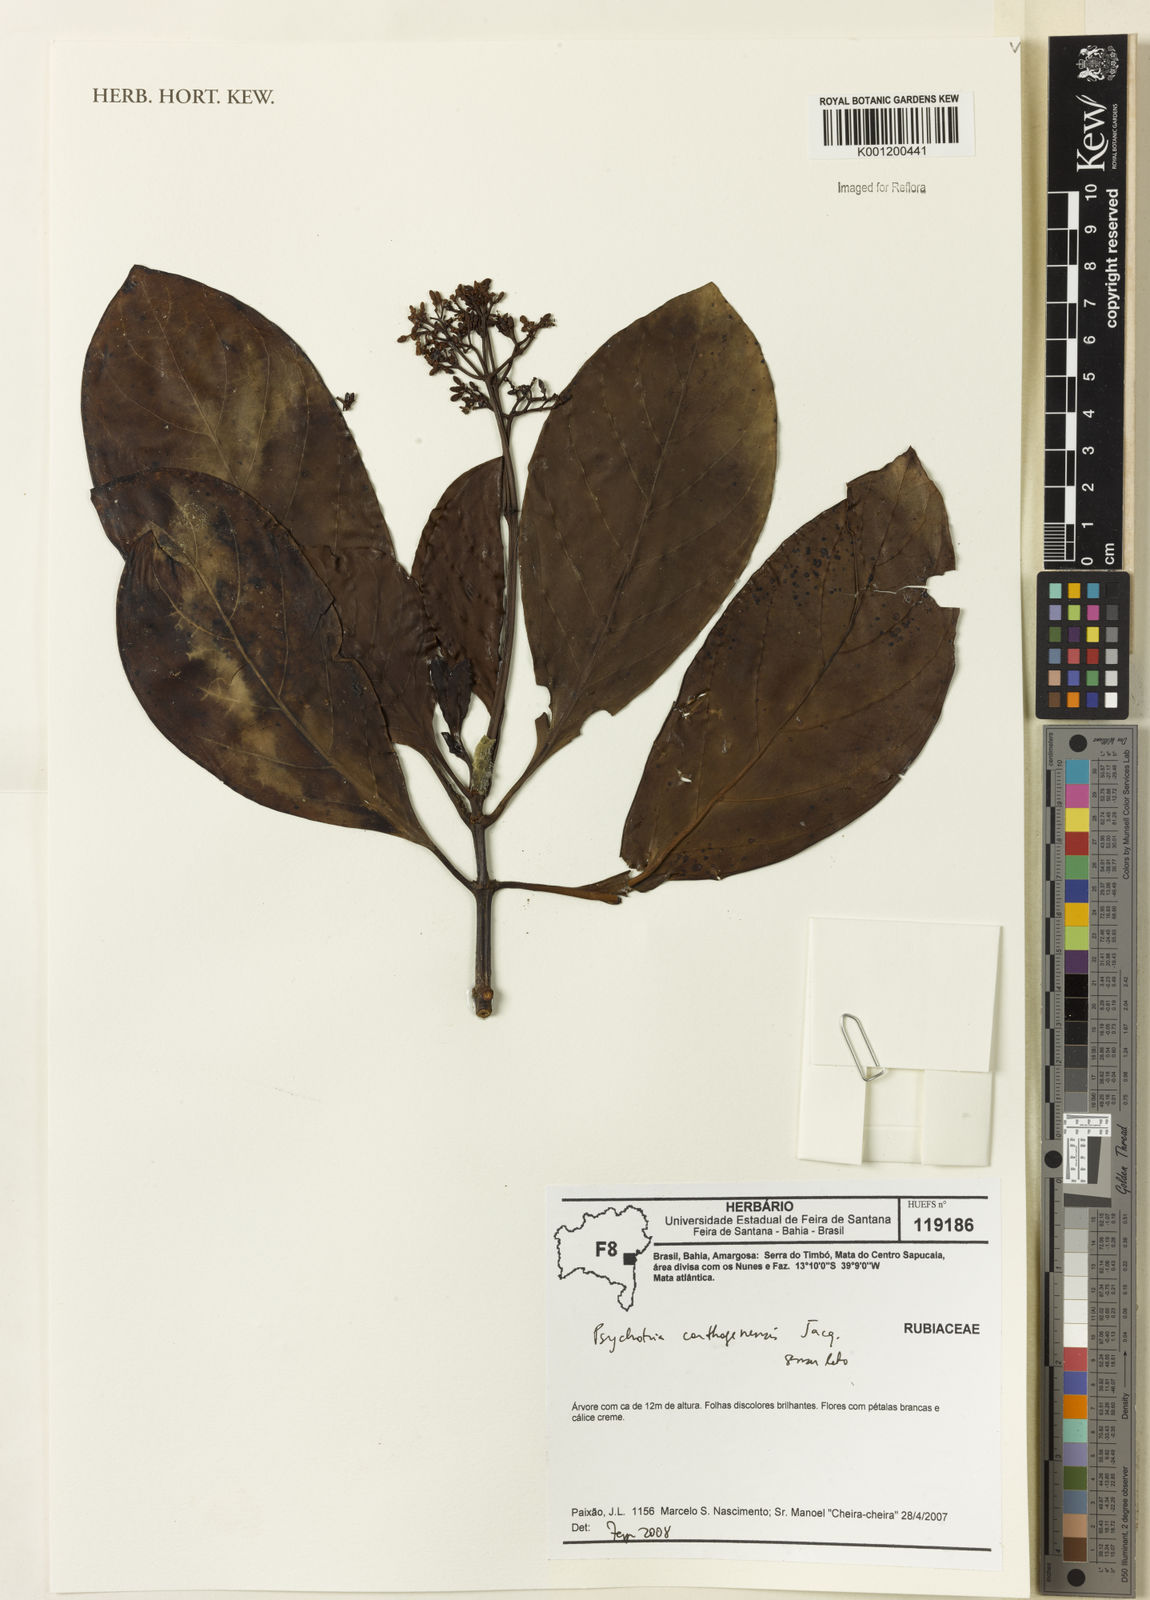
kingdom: Plantae
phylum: Tracheophyta
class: Magnoliopsida
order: Gentianales
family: Rubiaceae
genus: Psychotria
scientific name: Psychotria carthagenensis
